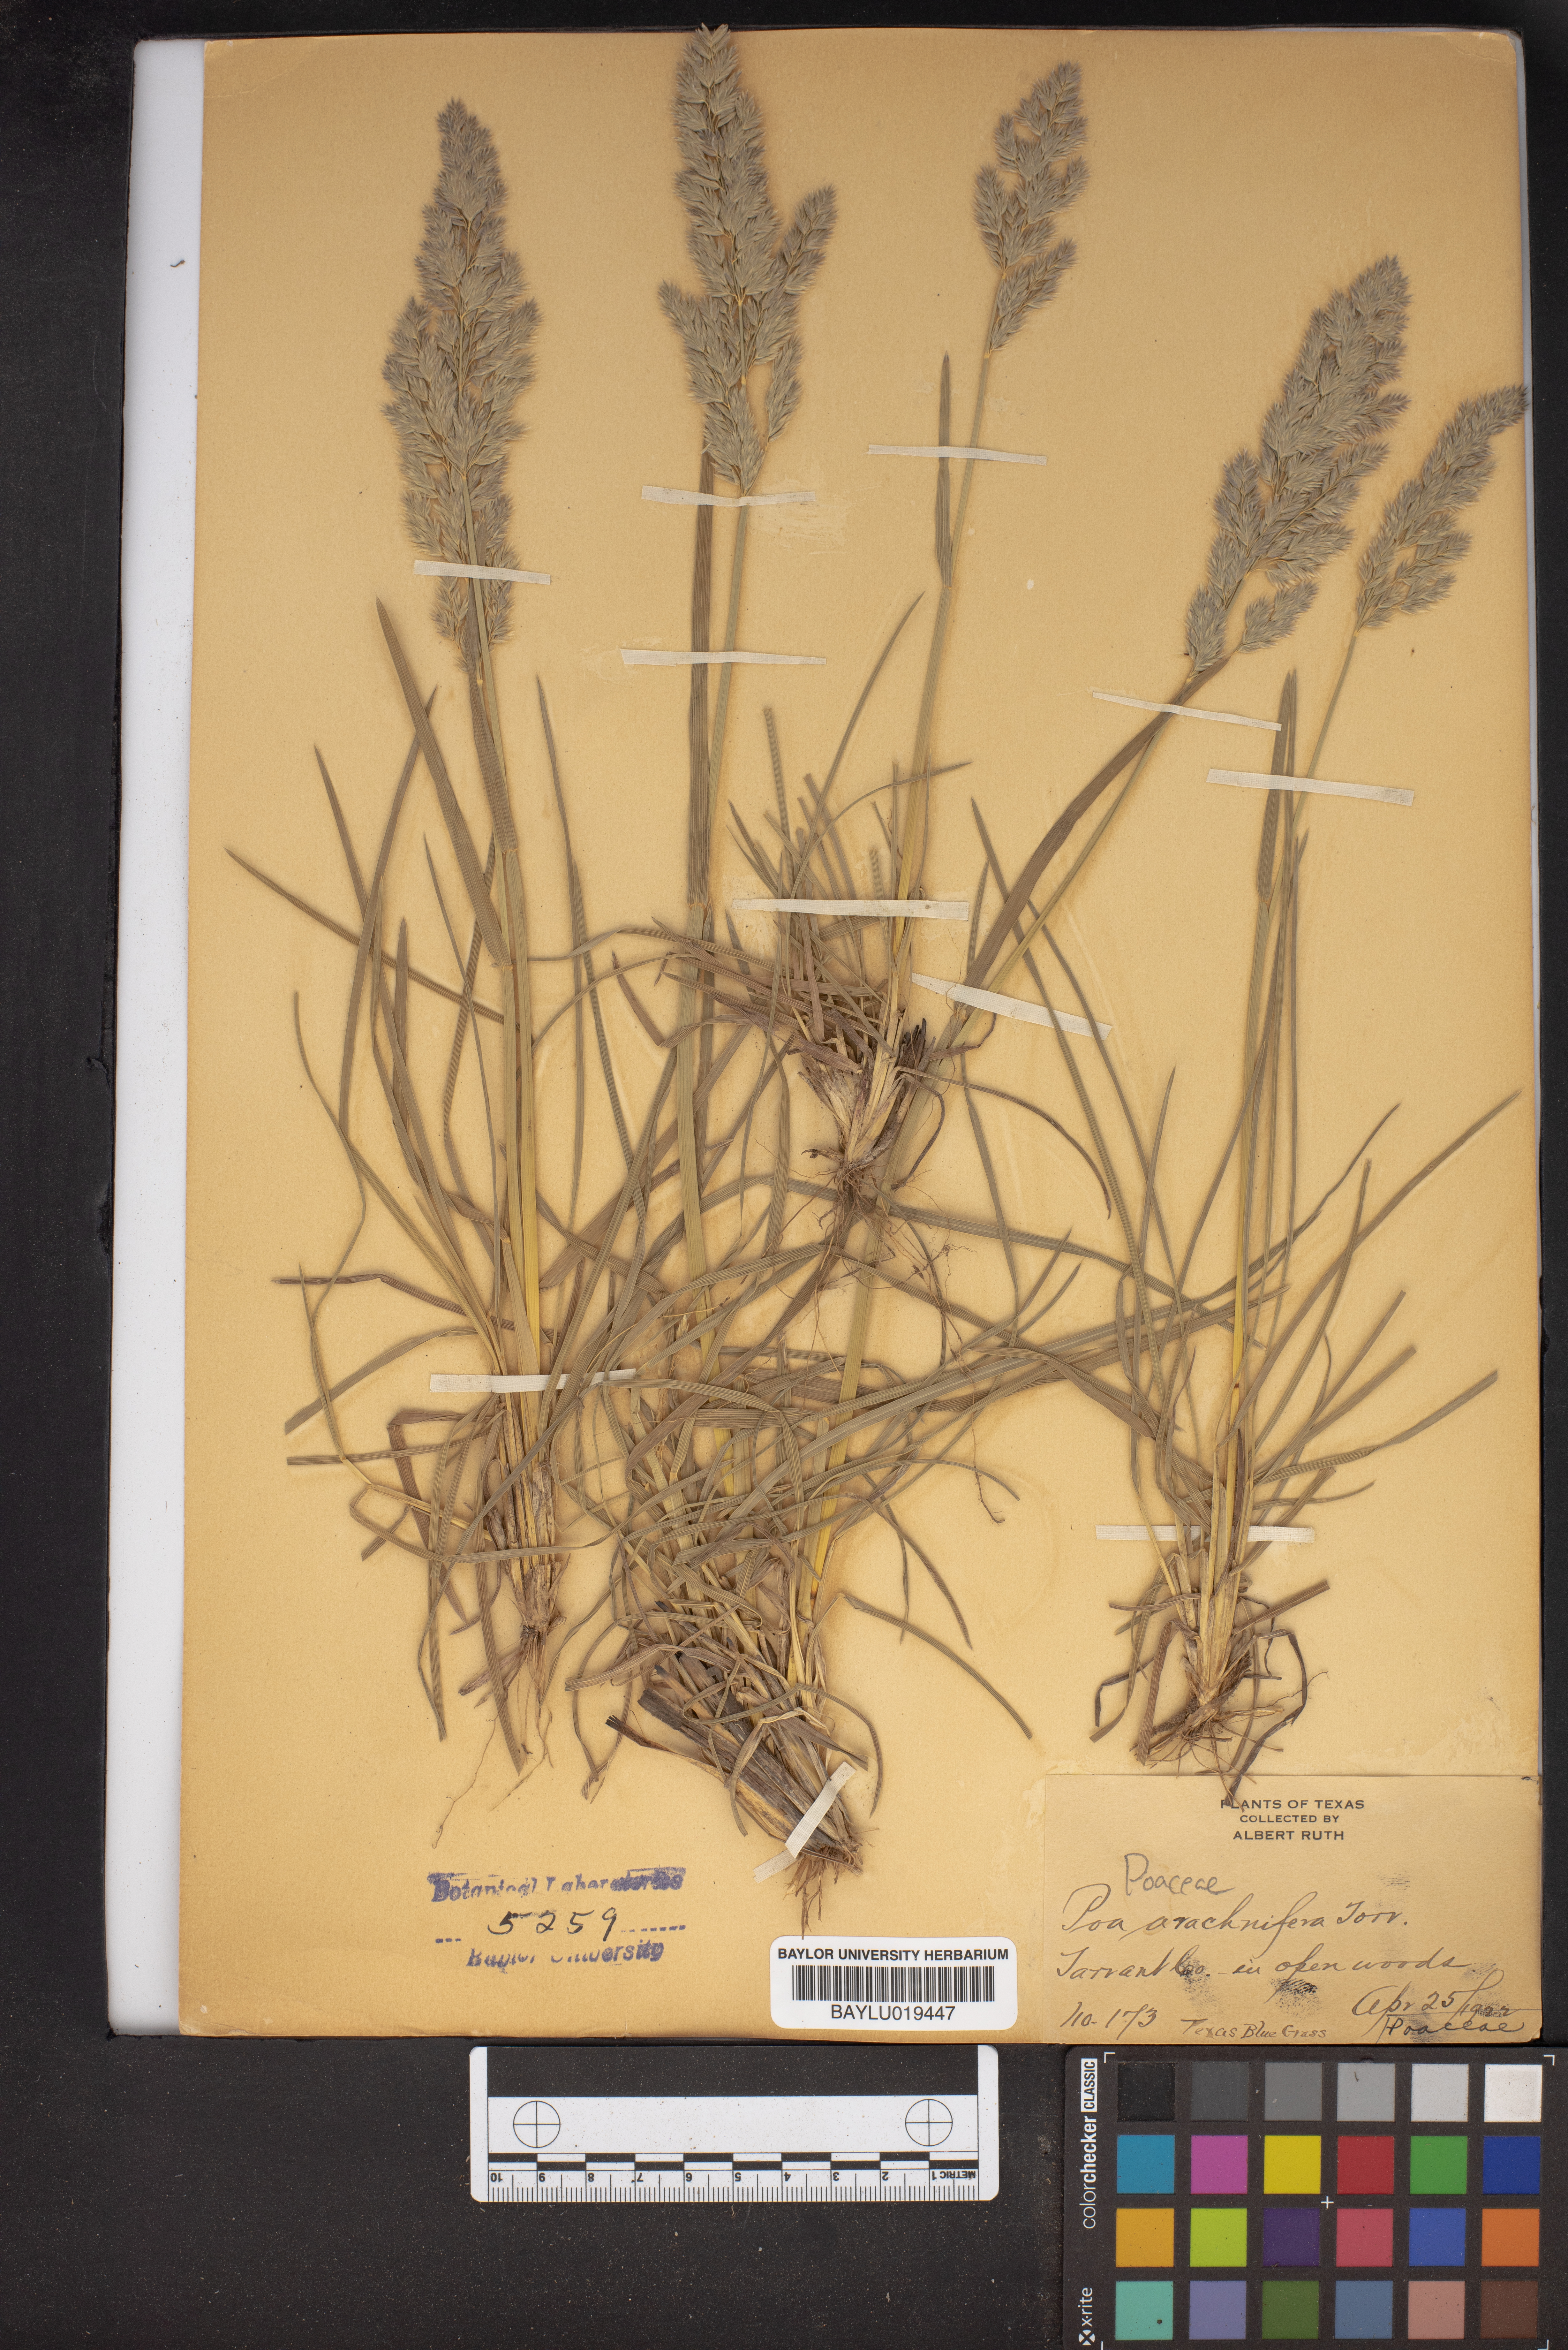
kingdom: Plantae
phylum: Tracheophyta
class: Liliopsida
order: Poales
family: Poaceae
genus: Poa
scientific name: Poa arachnifera
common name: Texas bluegrass
